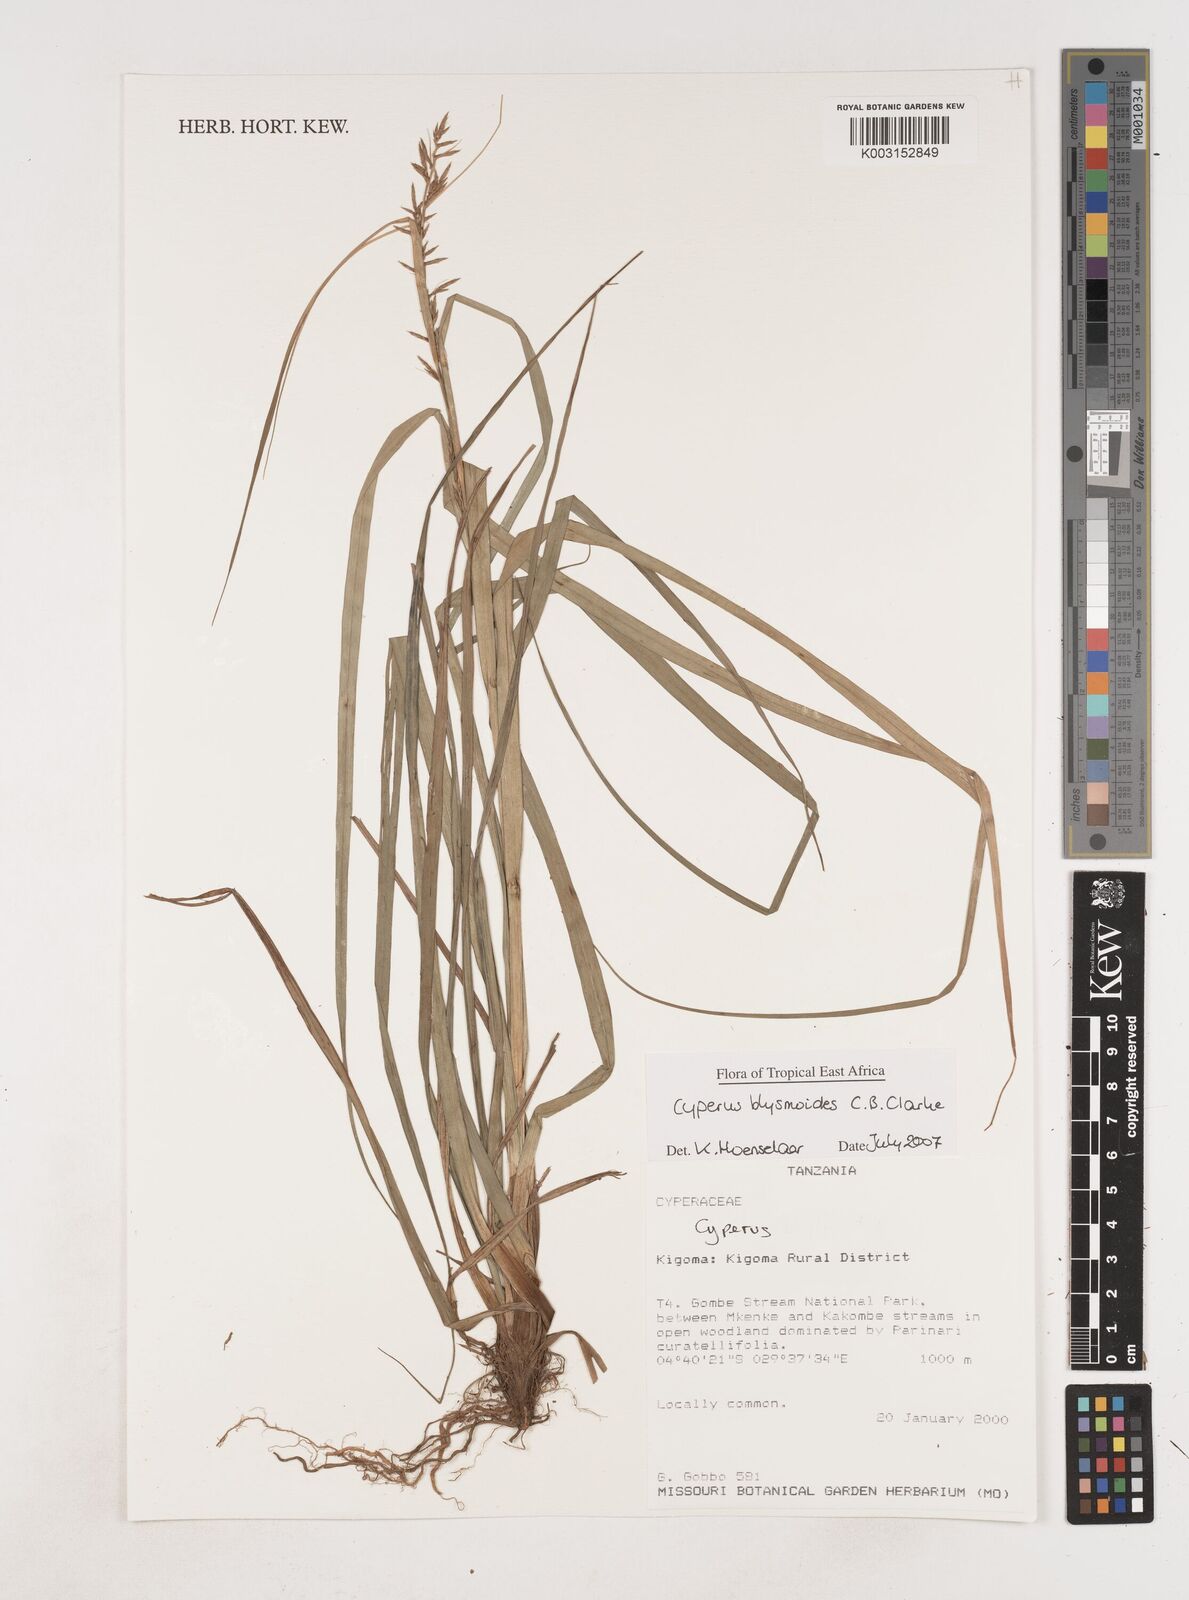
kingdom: Plantae
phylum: Tracheophyta
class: Liliopsida
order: Poales
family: Cyperaceae
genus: Cyperus
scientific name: Cyperus blysmoides
